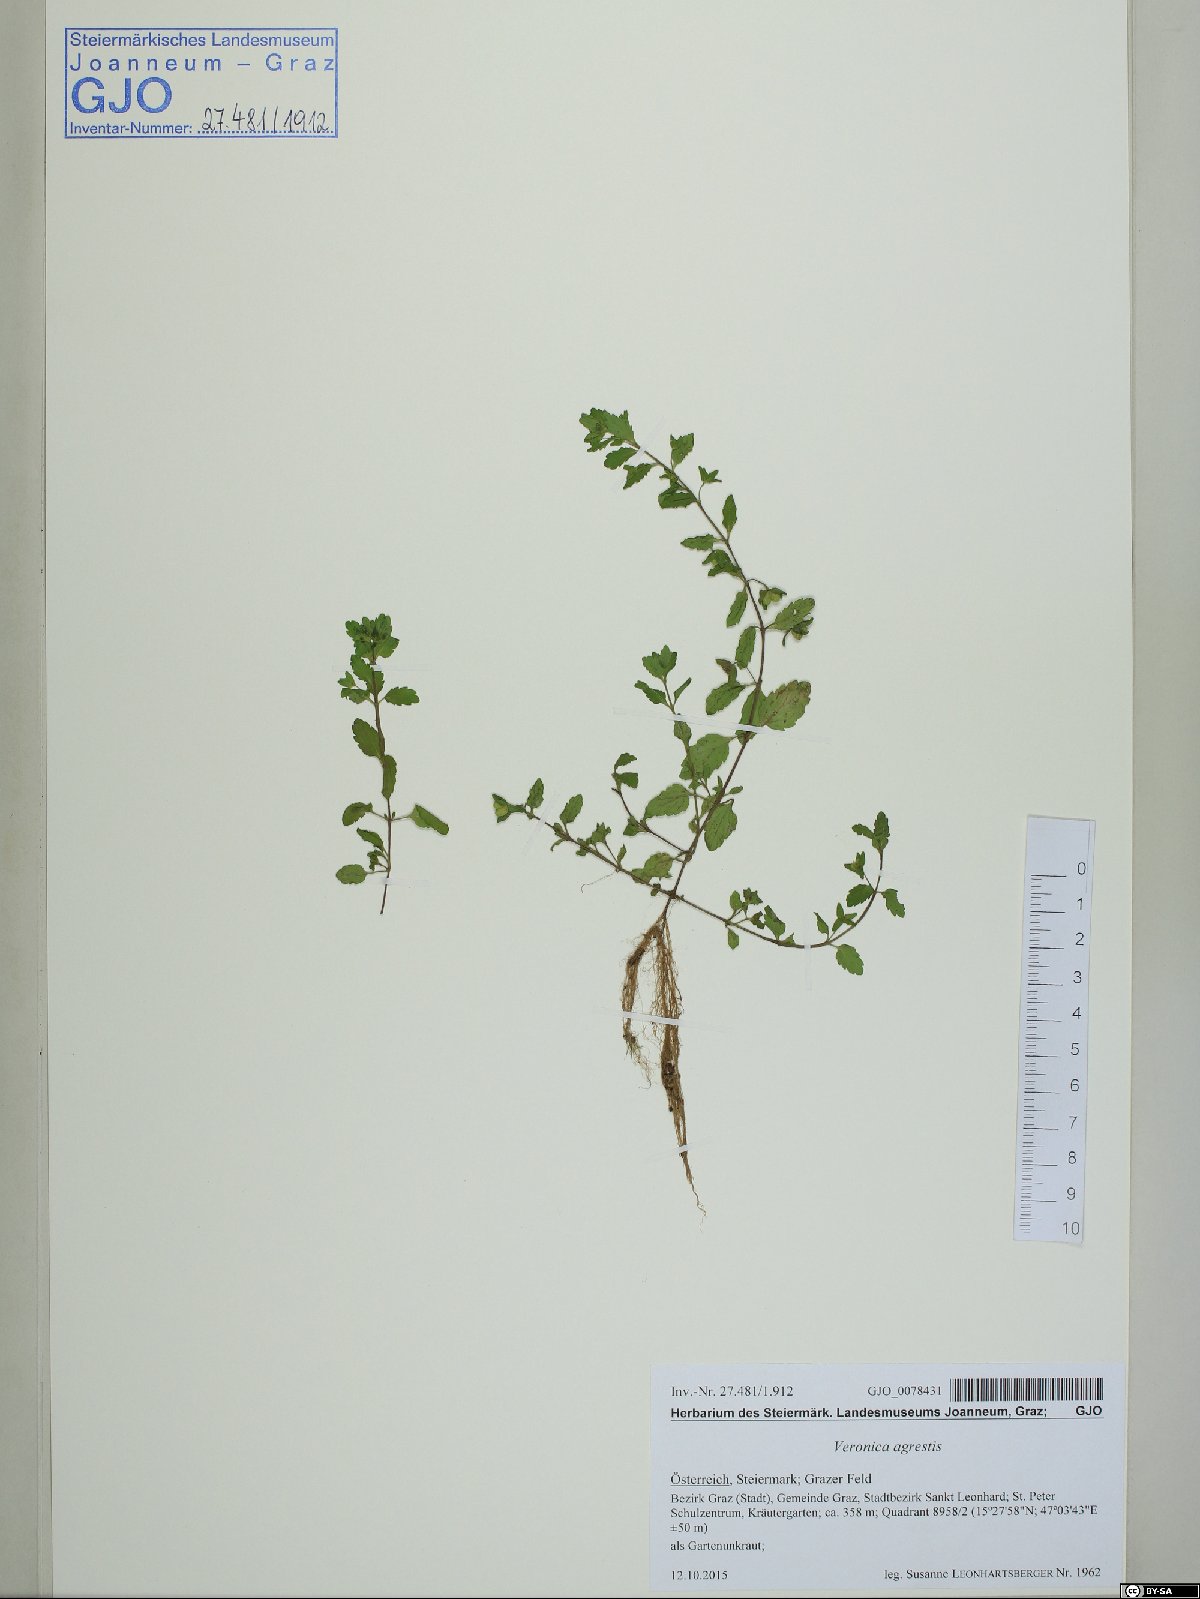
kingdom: Plantae
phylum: Tracheophyta
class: Magnoliopsida
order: Lamiales
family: Plantaginaceae
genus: Veronica
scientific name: Veronica agrestis
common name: Green field-speedwell
